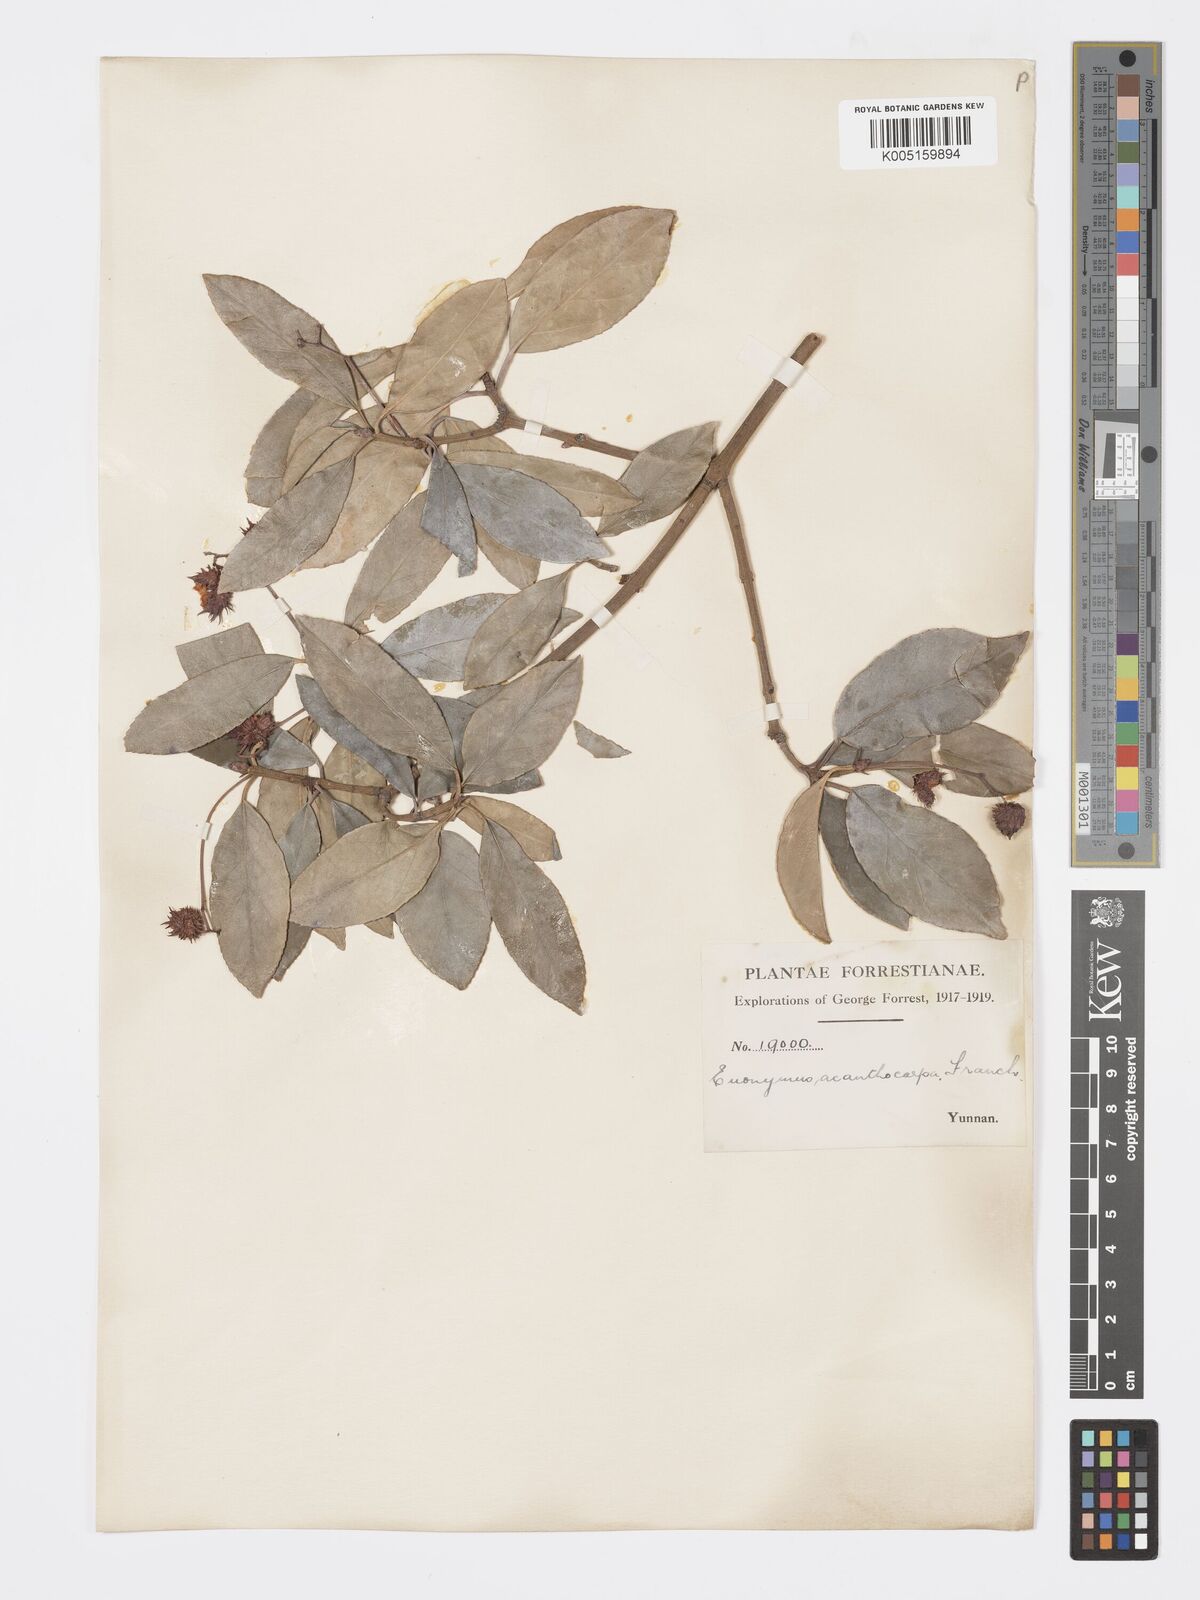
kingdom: Plantae
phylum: Tracheophyta
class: Magnoliopsida
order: Celastrales
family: Celastraceae
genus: Euonymus
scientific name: Euonymus acanthocarpus
